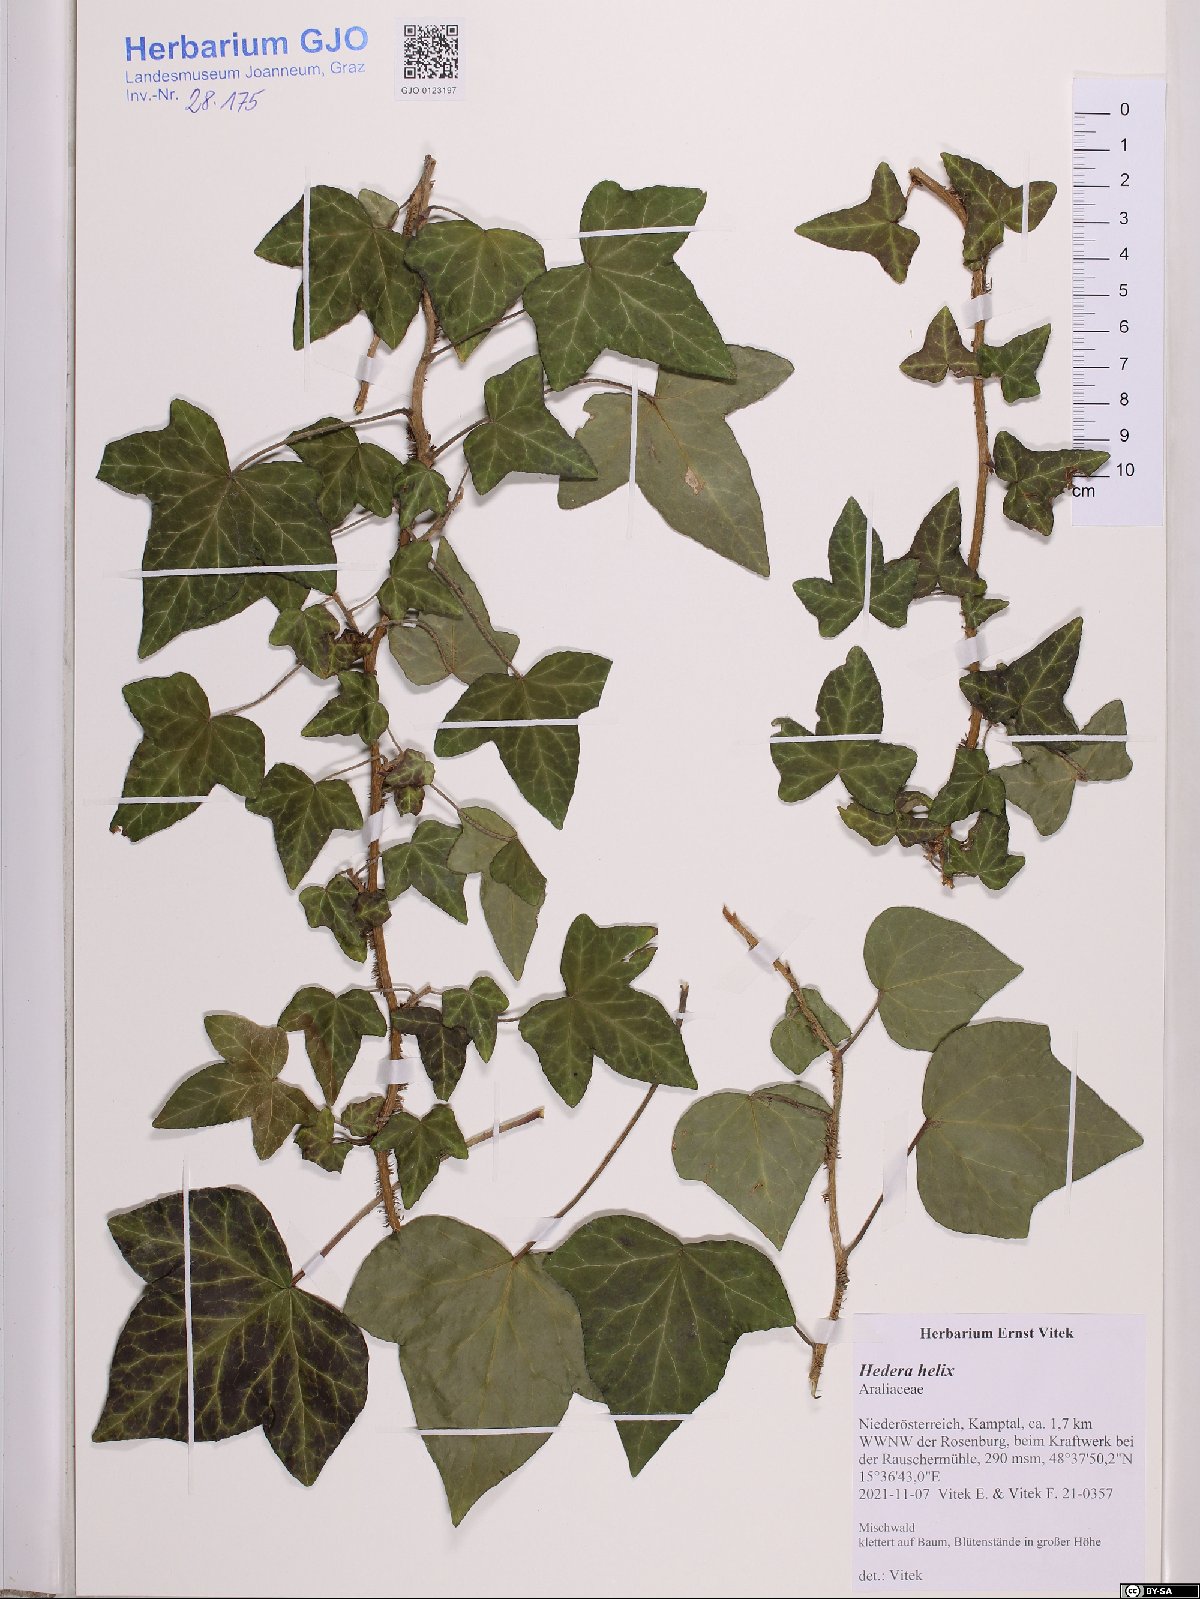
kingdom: Plantae
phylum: Tracheophyta
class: Magnoliopsida
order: Apiales
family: Araliaceae
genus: Hedera
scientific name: Hedera helix
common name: Ivy
